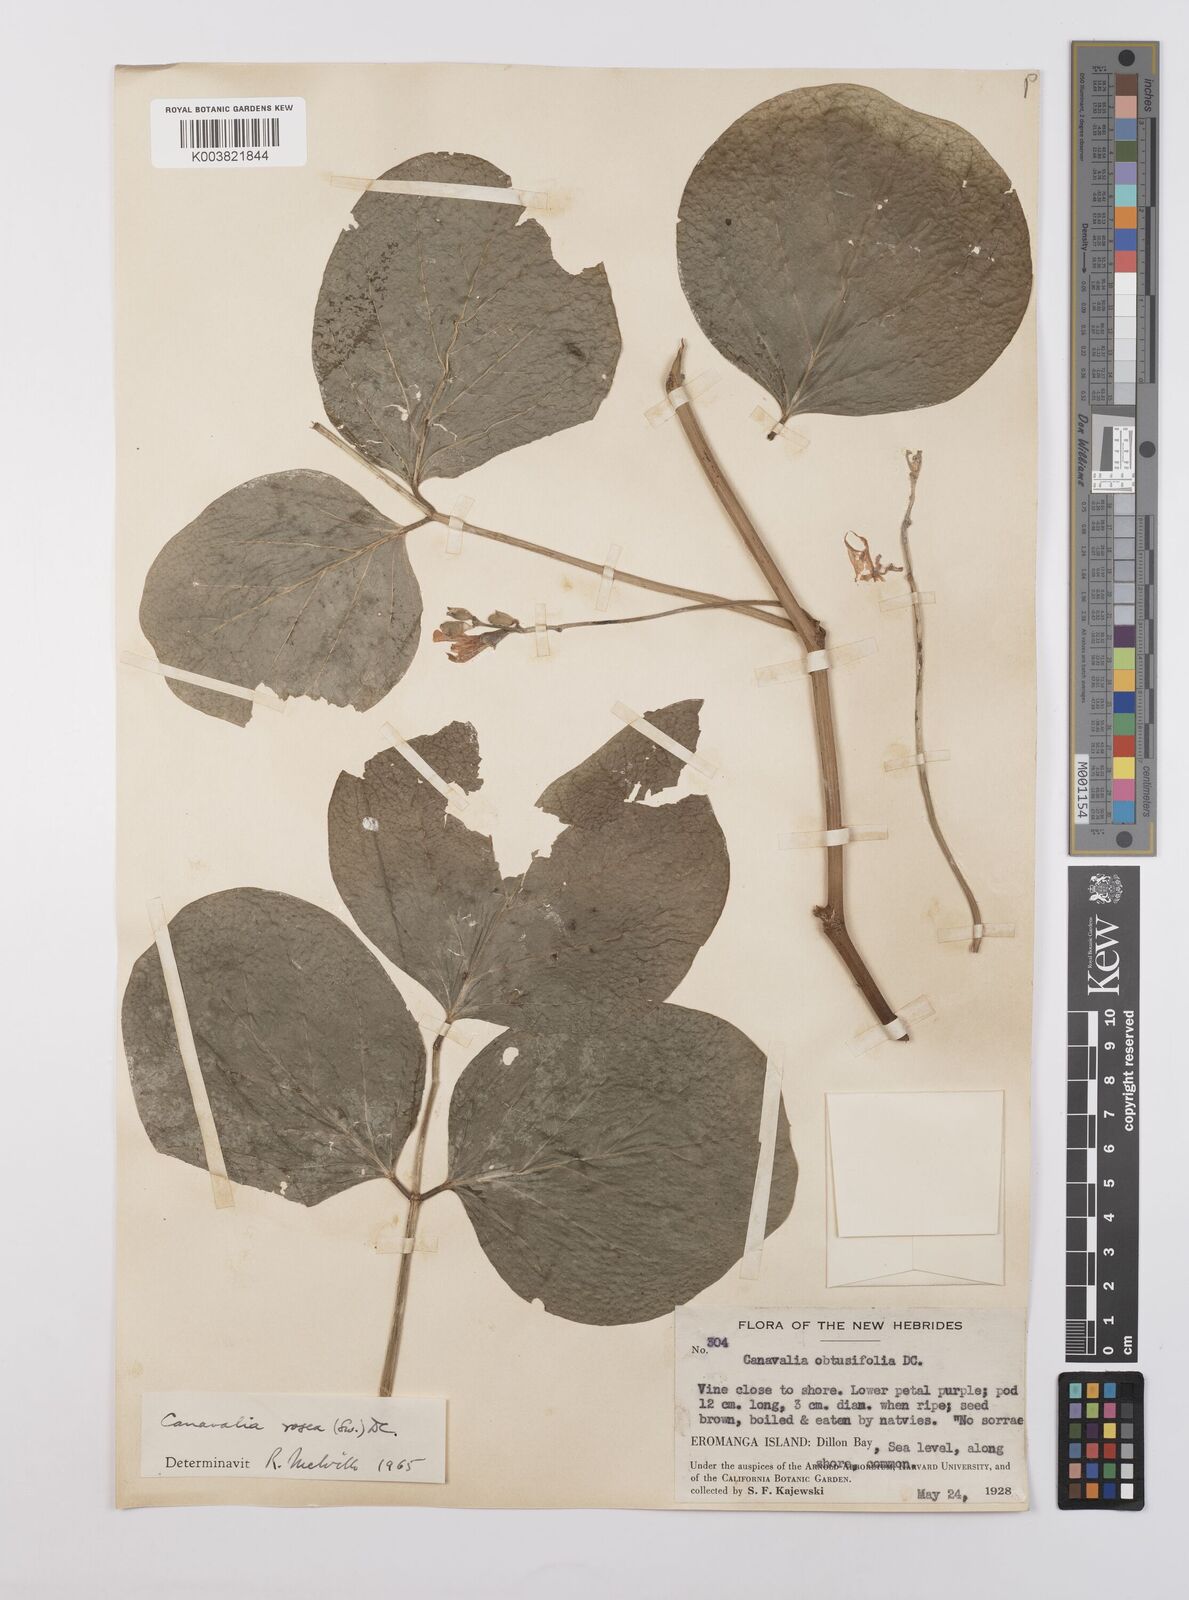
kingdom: Plantae
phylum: Tracheophyta
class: Magnoliopsida
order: Fabales
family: Fabaceae
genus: Canavalia
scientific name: Canavalia rosea
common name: Beach-bean
